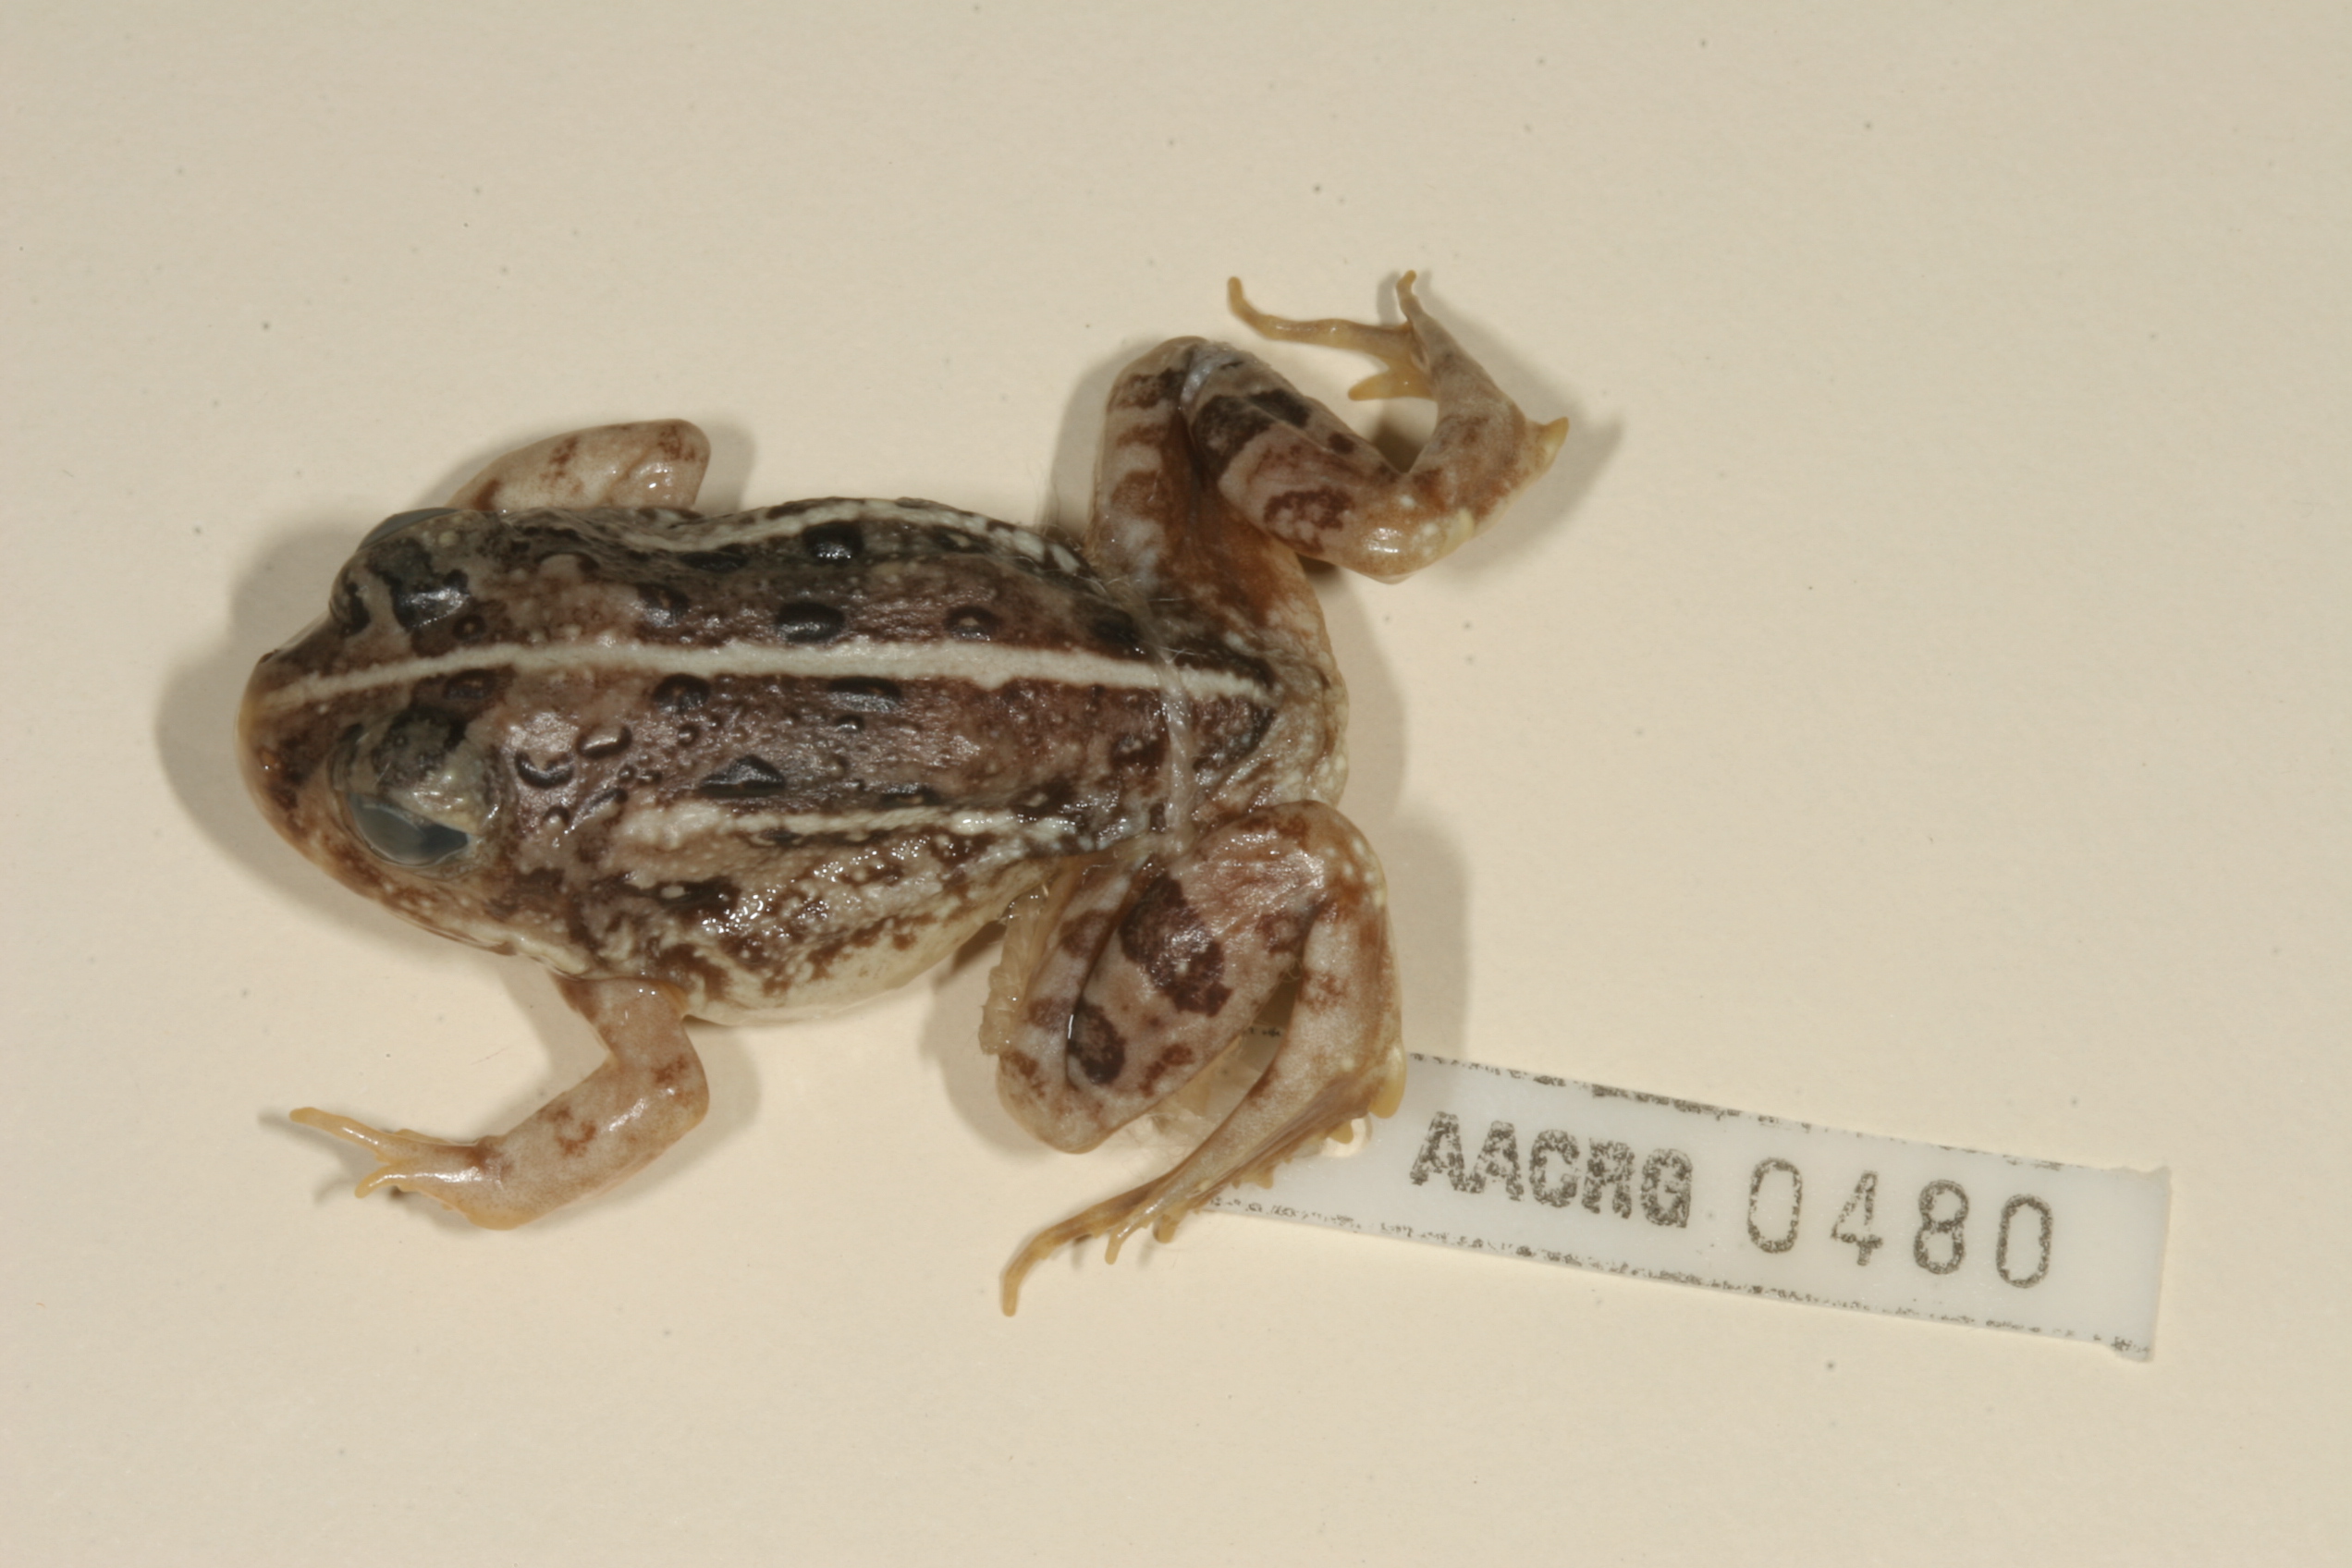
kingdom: Animalia
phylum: Chordata
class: Amphibia
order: Anura
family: Pyxicephalidae
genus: Tomopterna
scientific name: Tomopterna krugerensis
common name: Knocking sand frog
